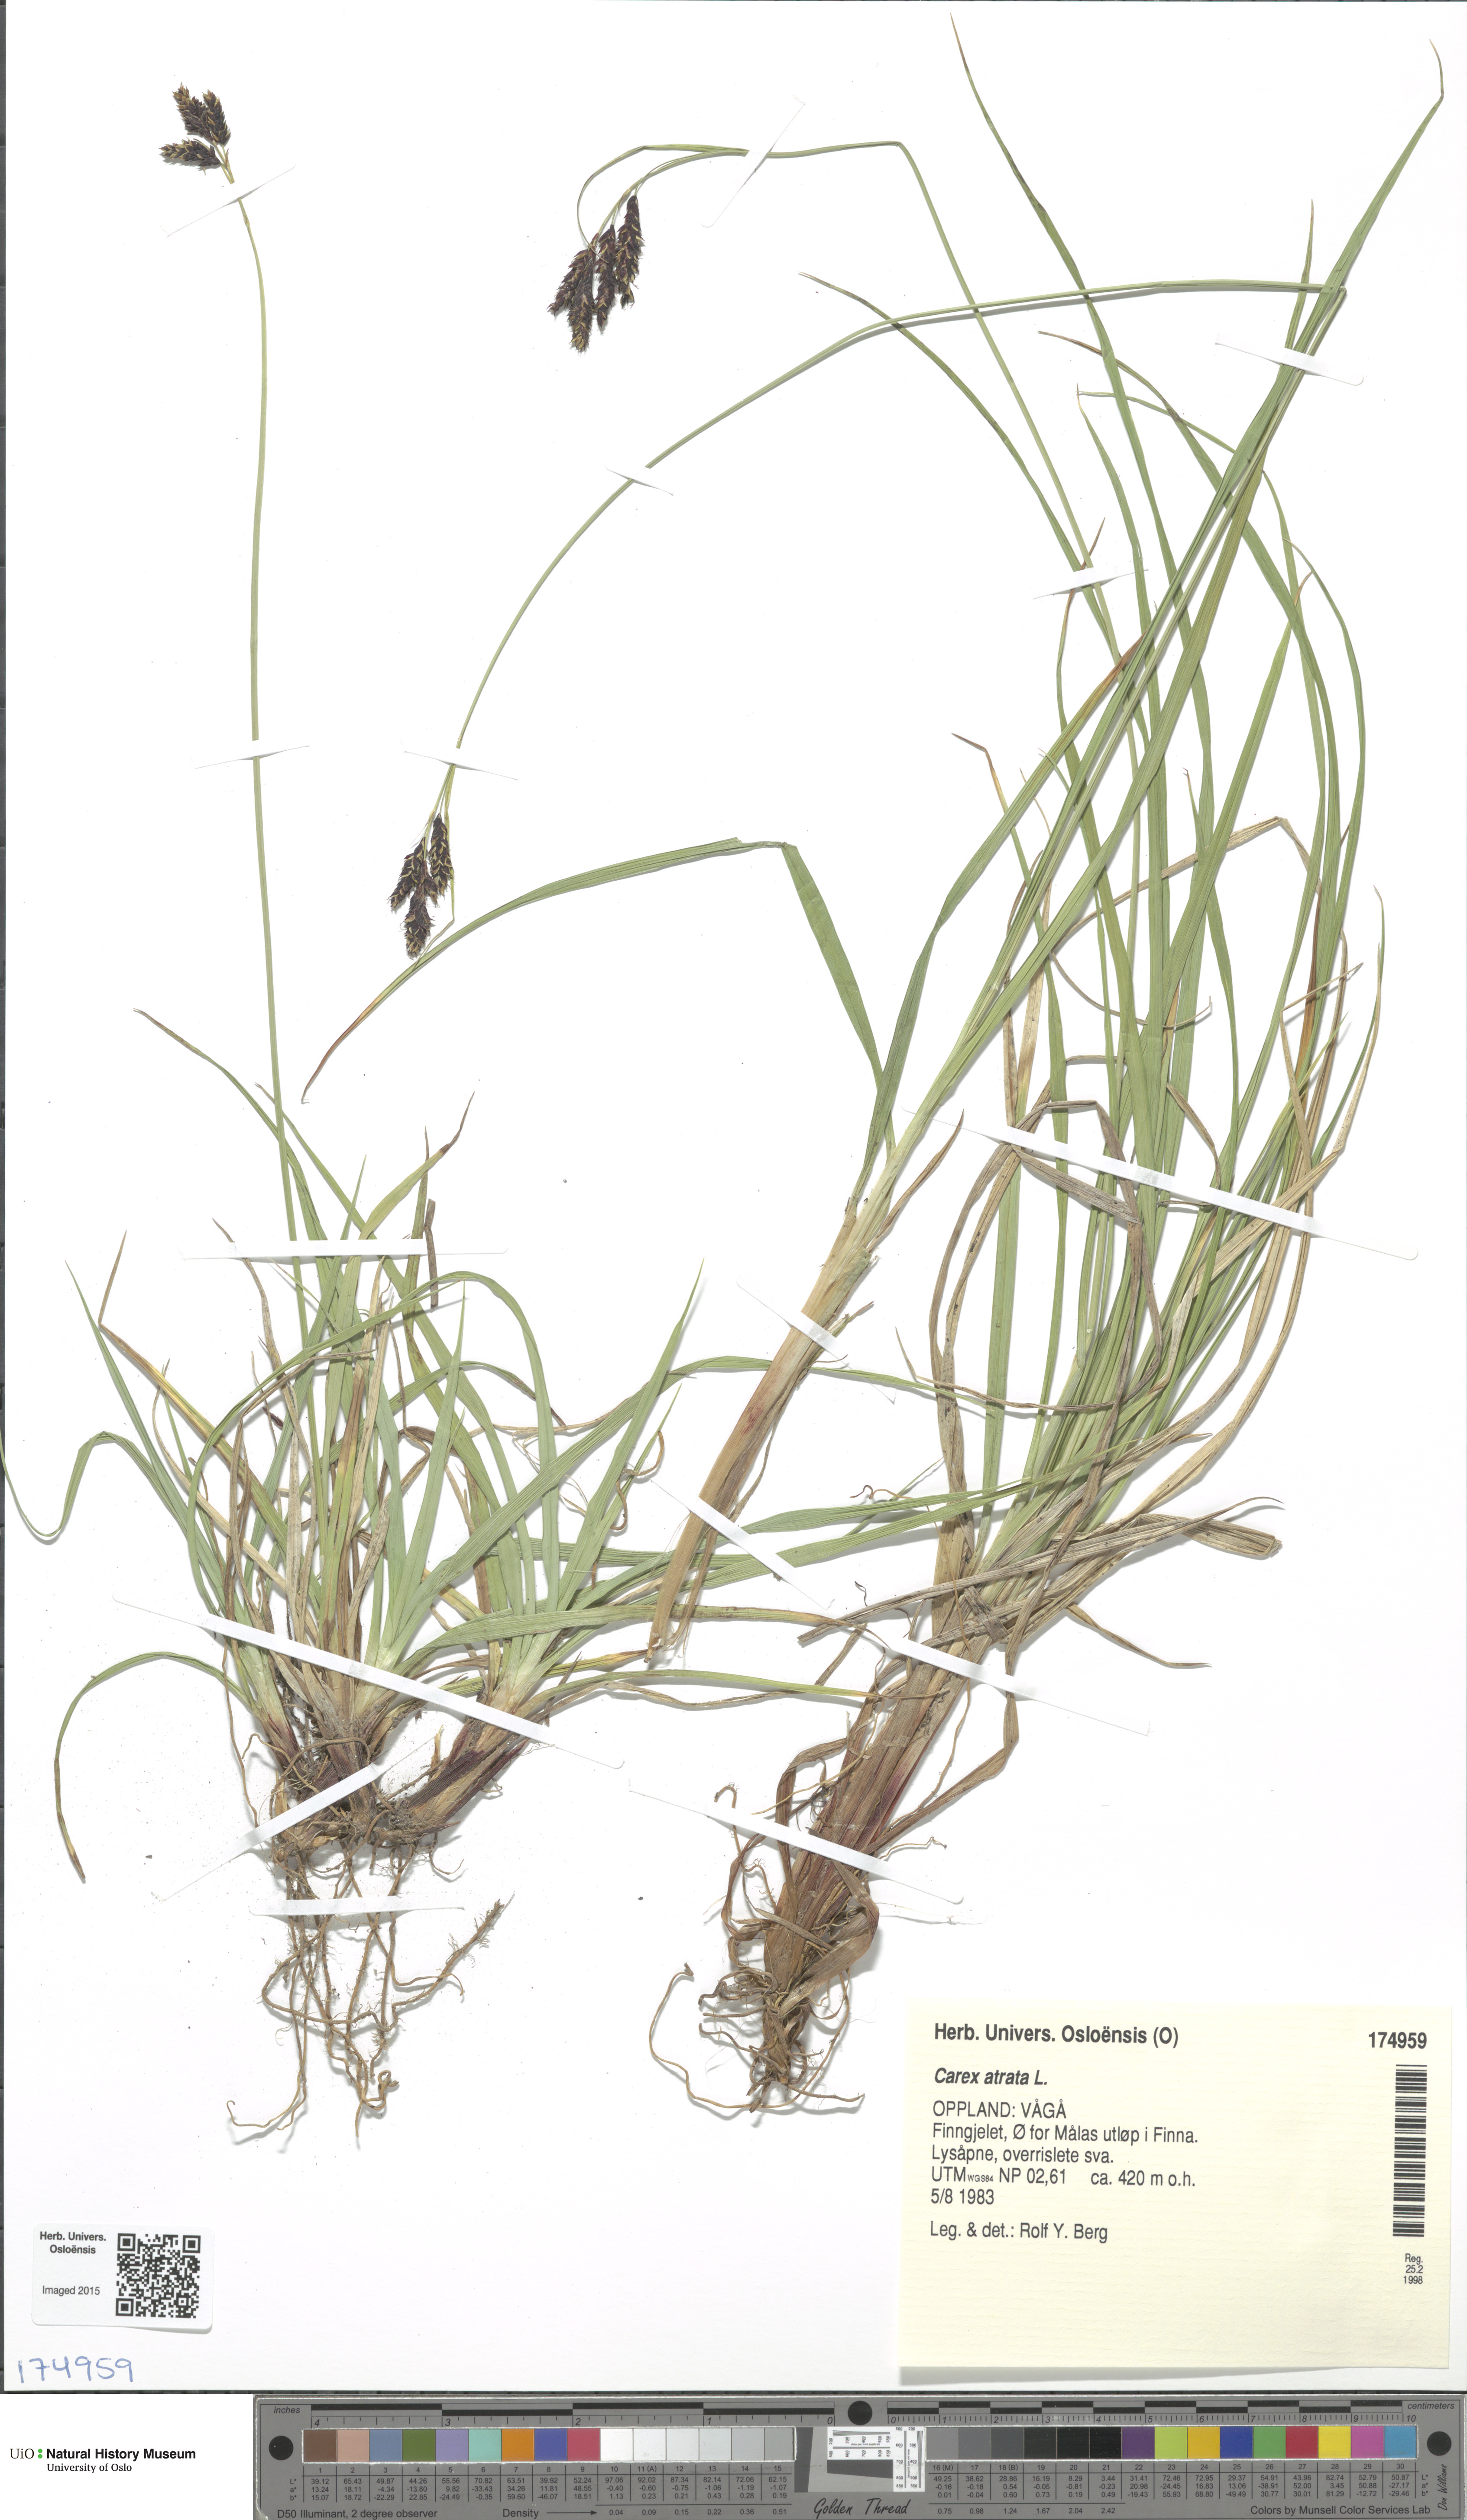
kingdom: Plantae
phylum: Tracheophyta
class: Liliopsida
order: Poales
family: Cyperaceae
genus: Carex
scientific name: Carex atrata
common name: Black alpine sedge
